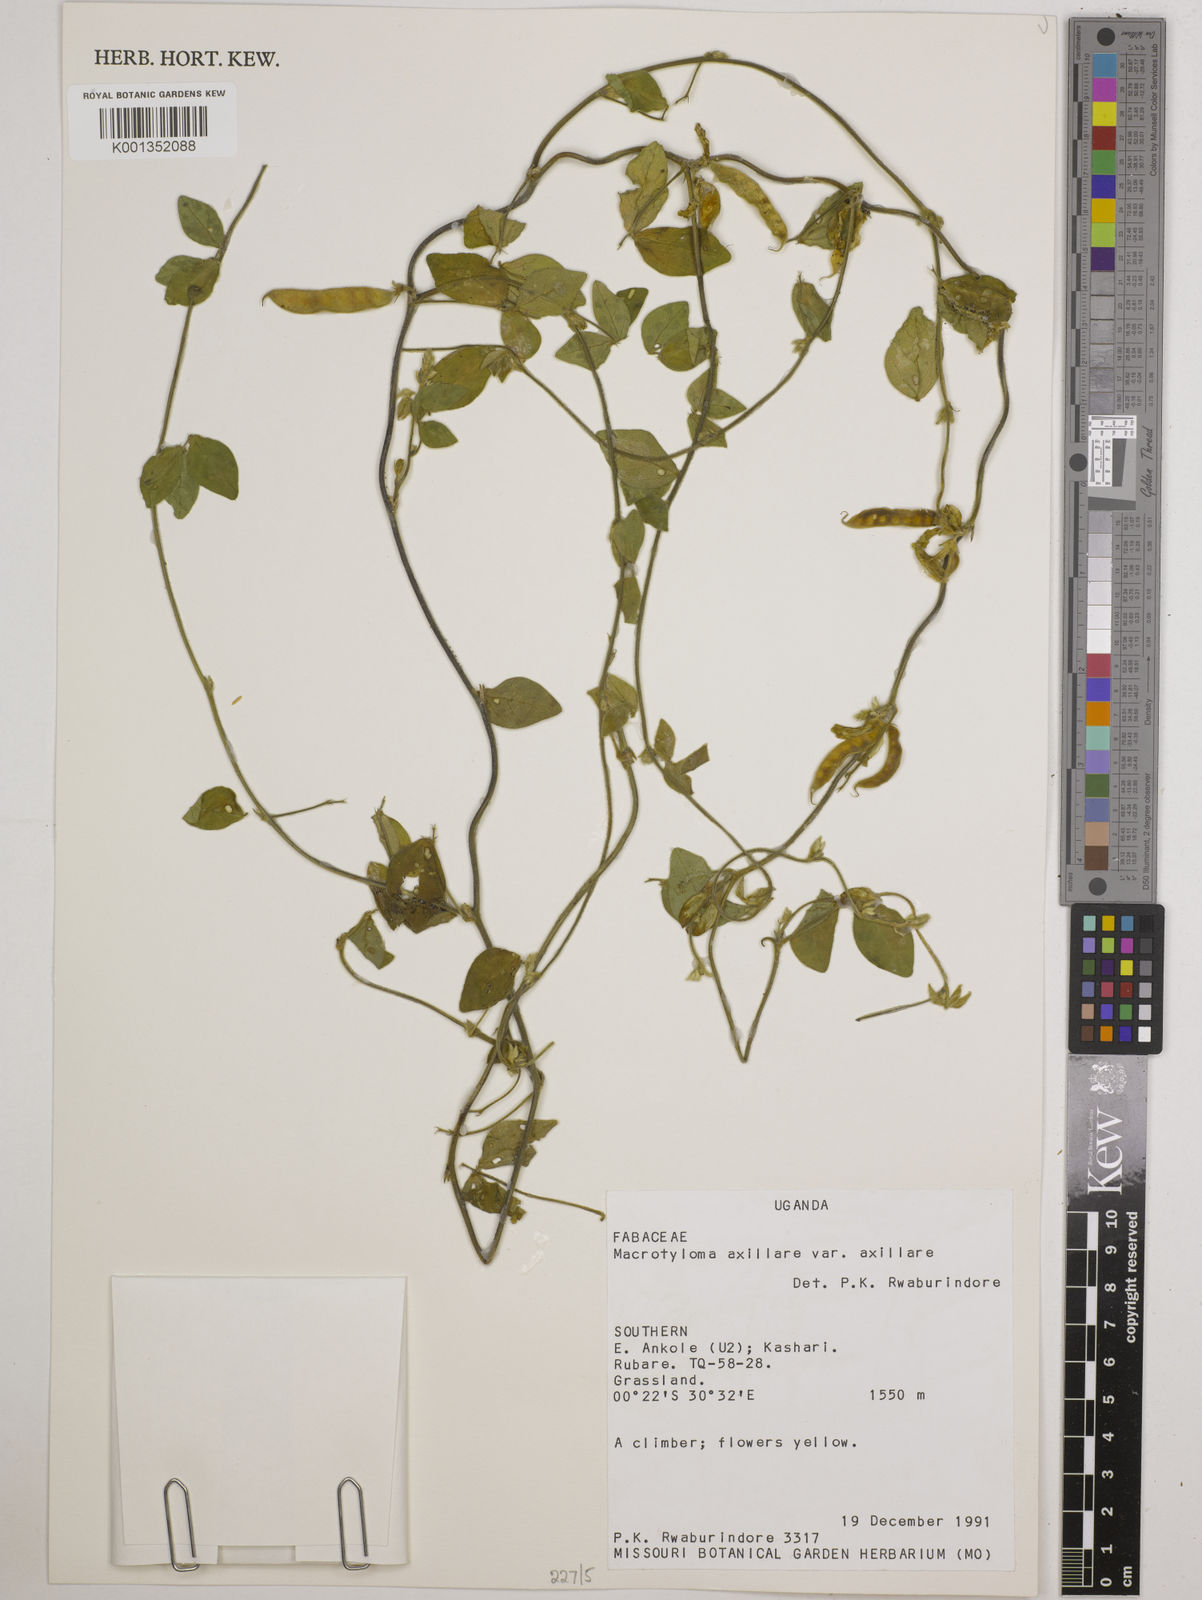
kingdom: Plantae
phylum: Tracheophyta
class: Magnoliopsida
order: Fabales
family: Fabaceae
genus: Macrotyloma
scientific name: Macrotyloma axillare
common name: Perennial horsegram
